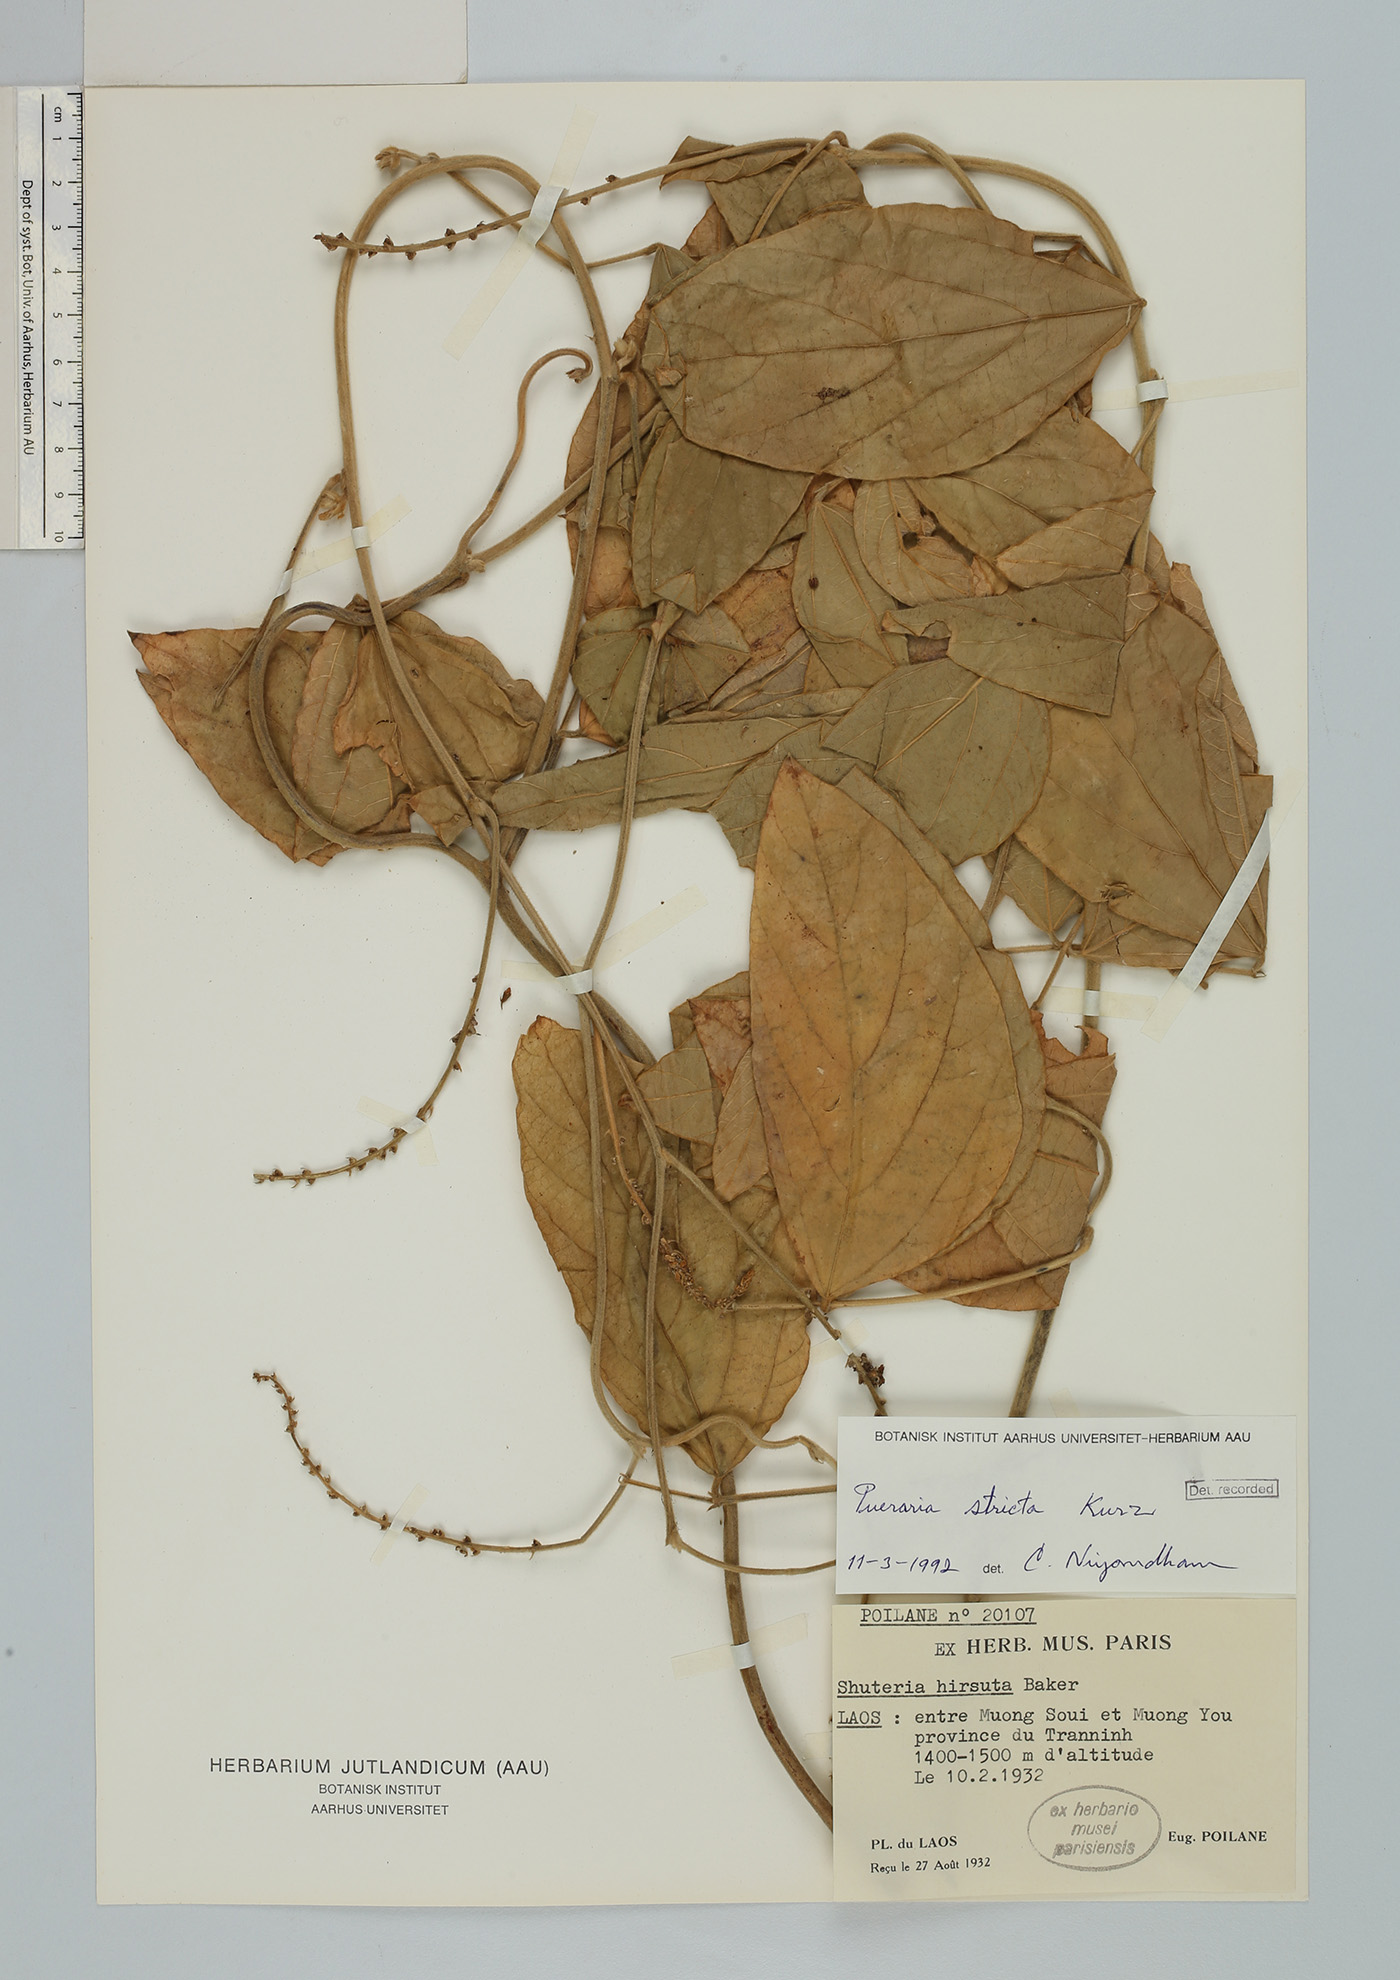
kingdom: Plantae
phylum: Tracheophyta
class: Magnoliopsida
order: Fabales
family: Fabaceae
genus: Teyleria
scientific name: Teyleria stricta
